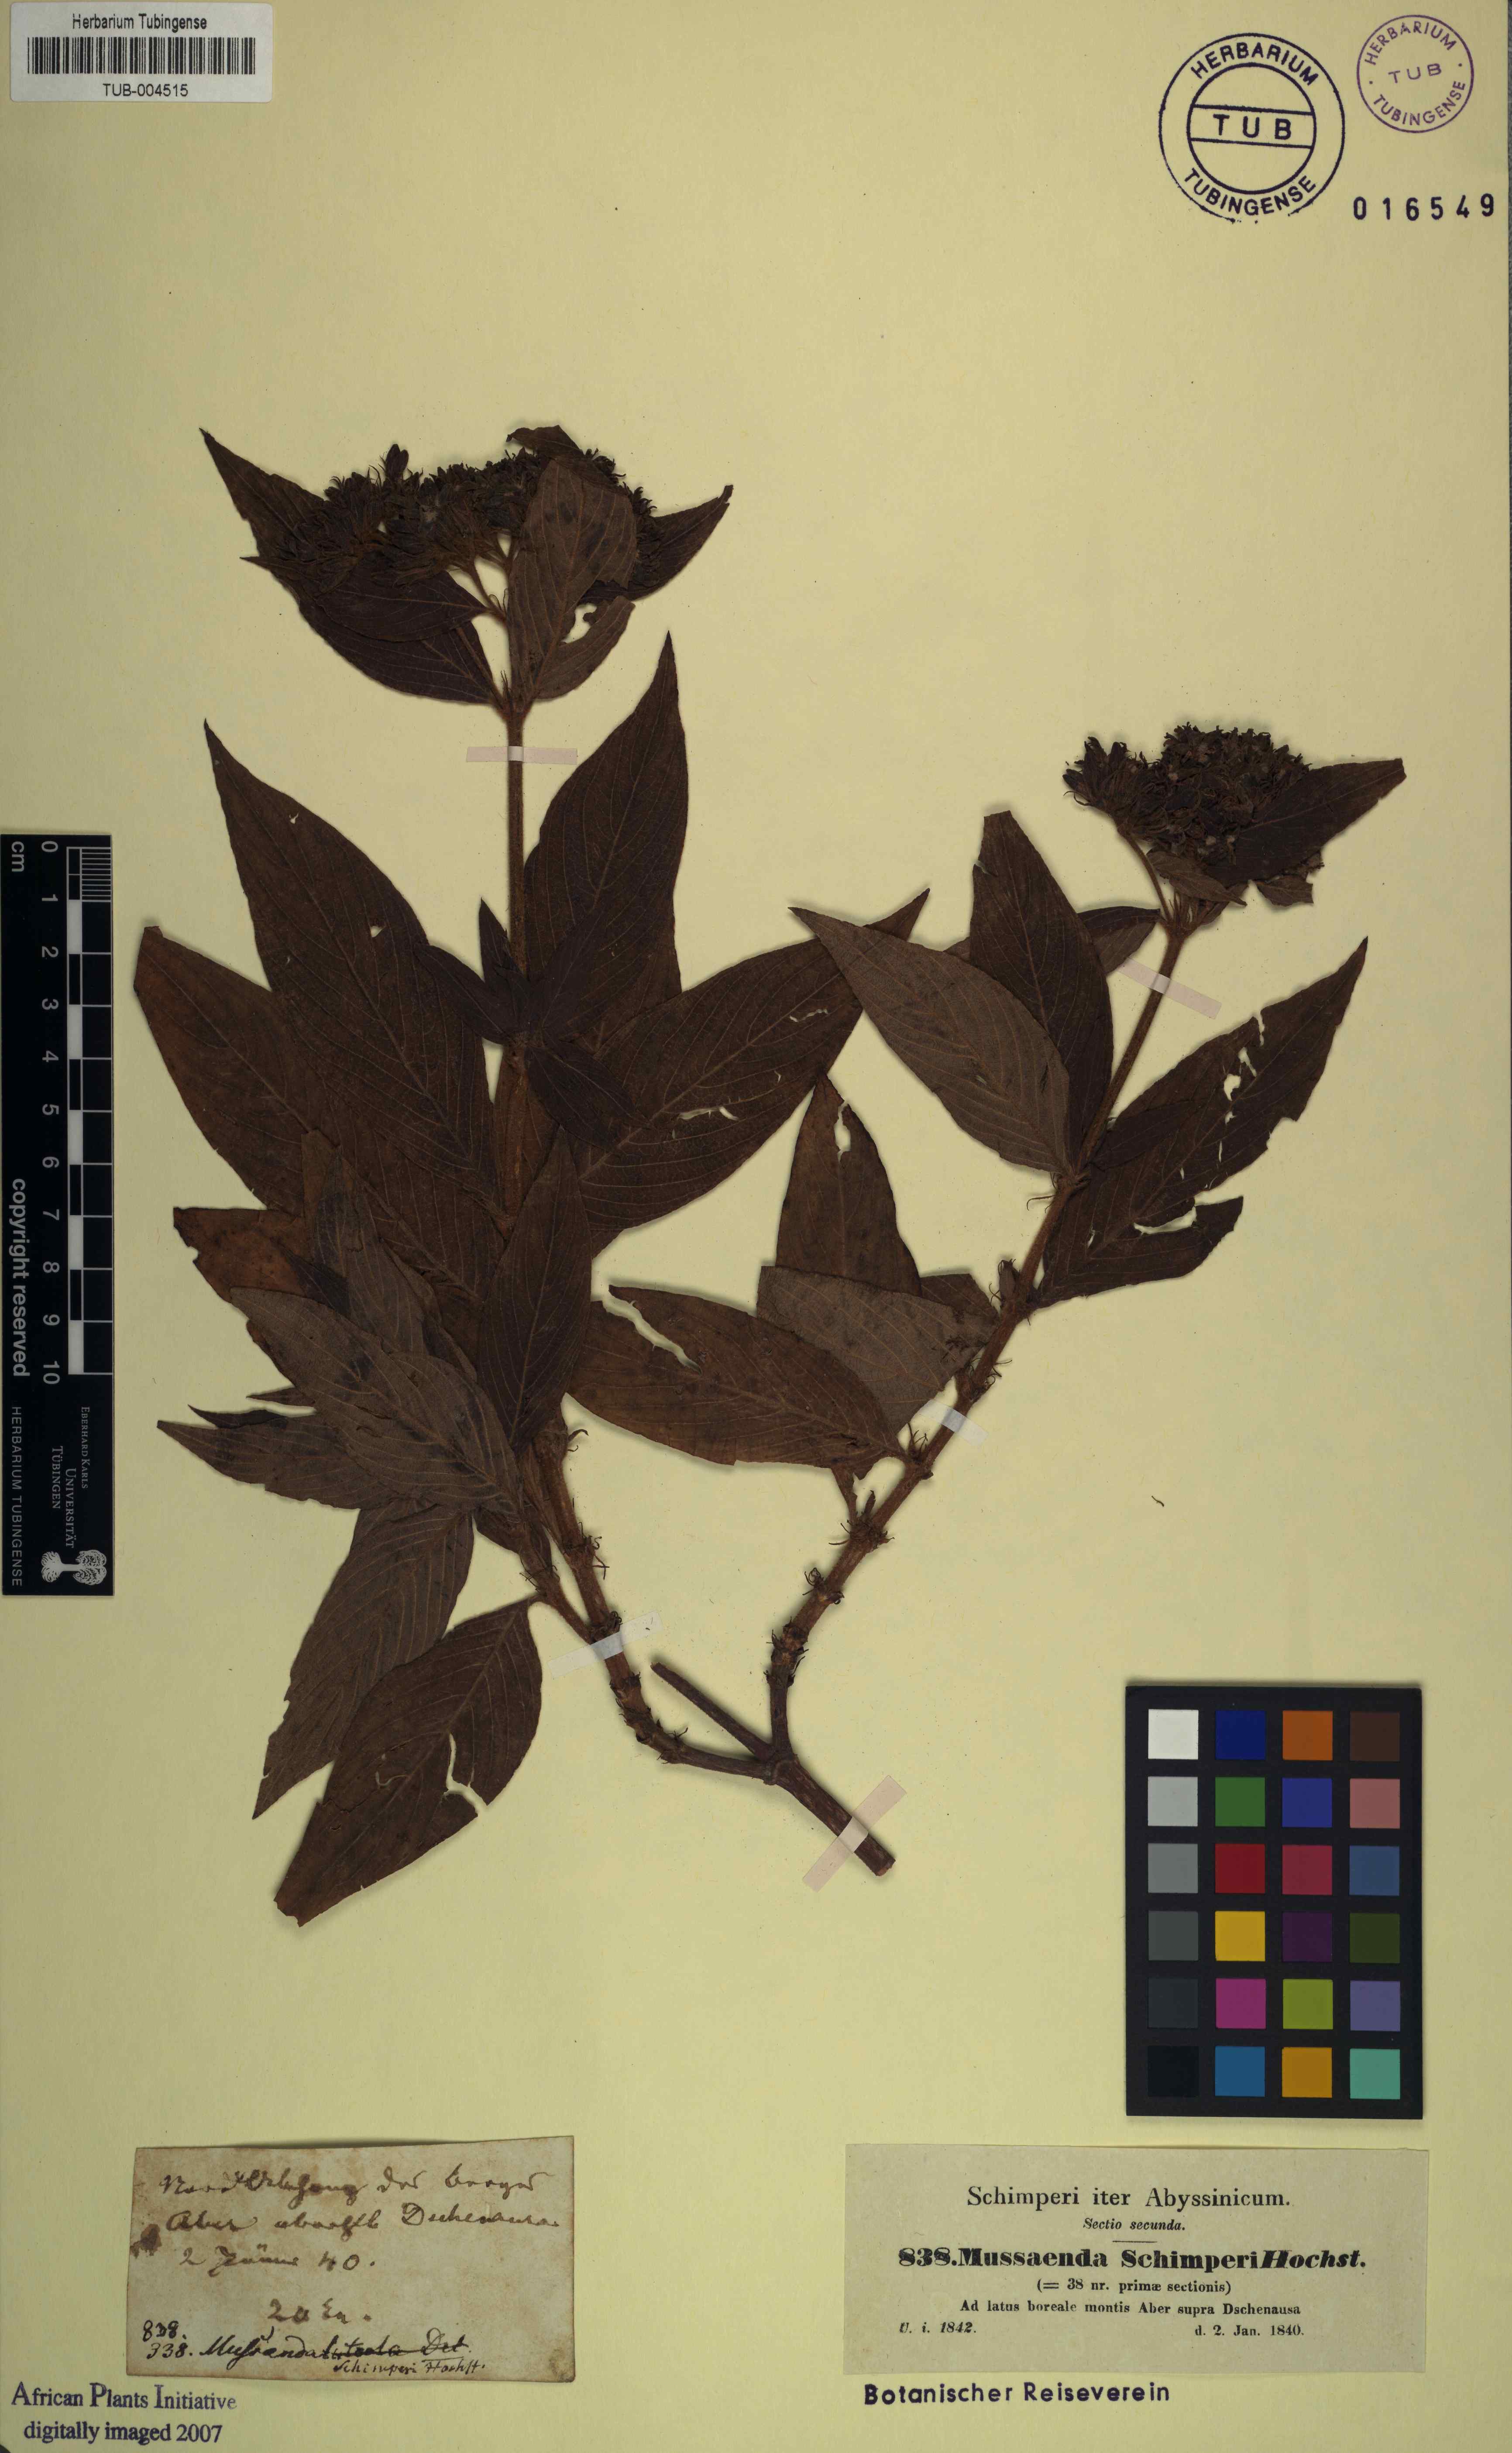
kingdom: Plantae
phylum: Tracheophyta
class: Magnoliopsida
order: Gentianales
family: Rubiaceae
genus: Phyllopentas
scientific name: Phyllopentas schimperi
